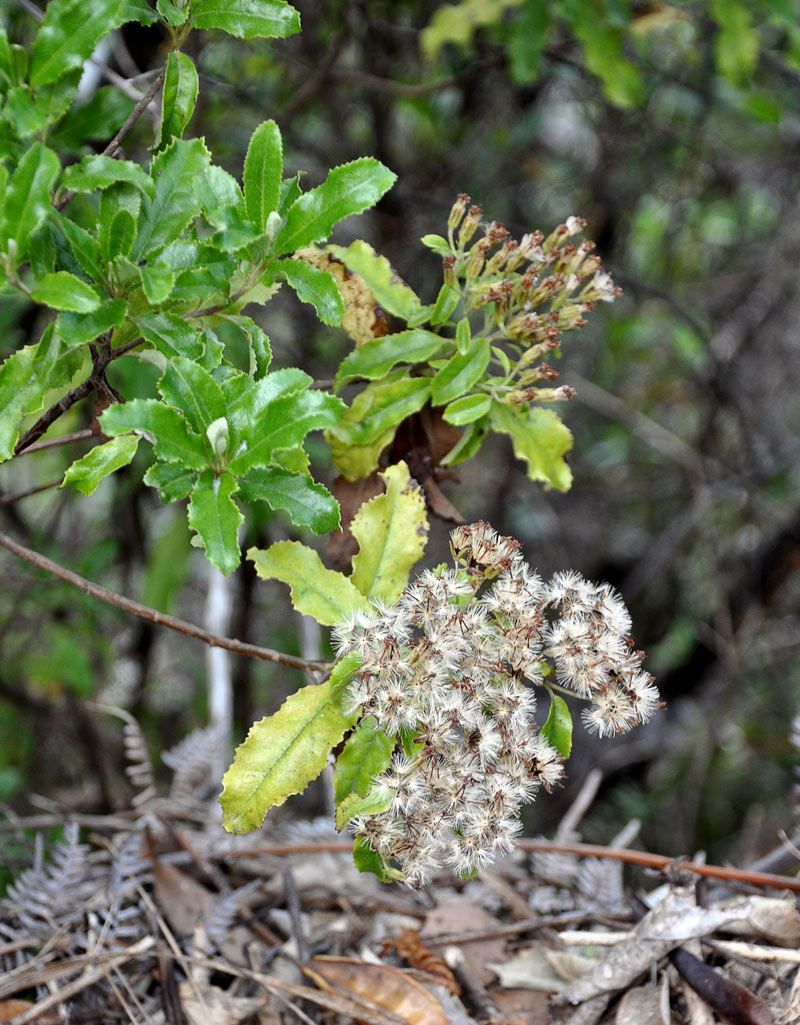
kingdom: Plantae
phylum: Tracheophyta
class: Magnoliopsida
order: Asterales
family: Asteraceae
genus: Brachyglottis
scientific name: Brachyglottis perdicioides
